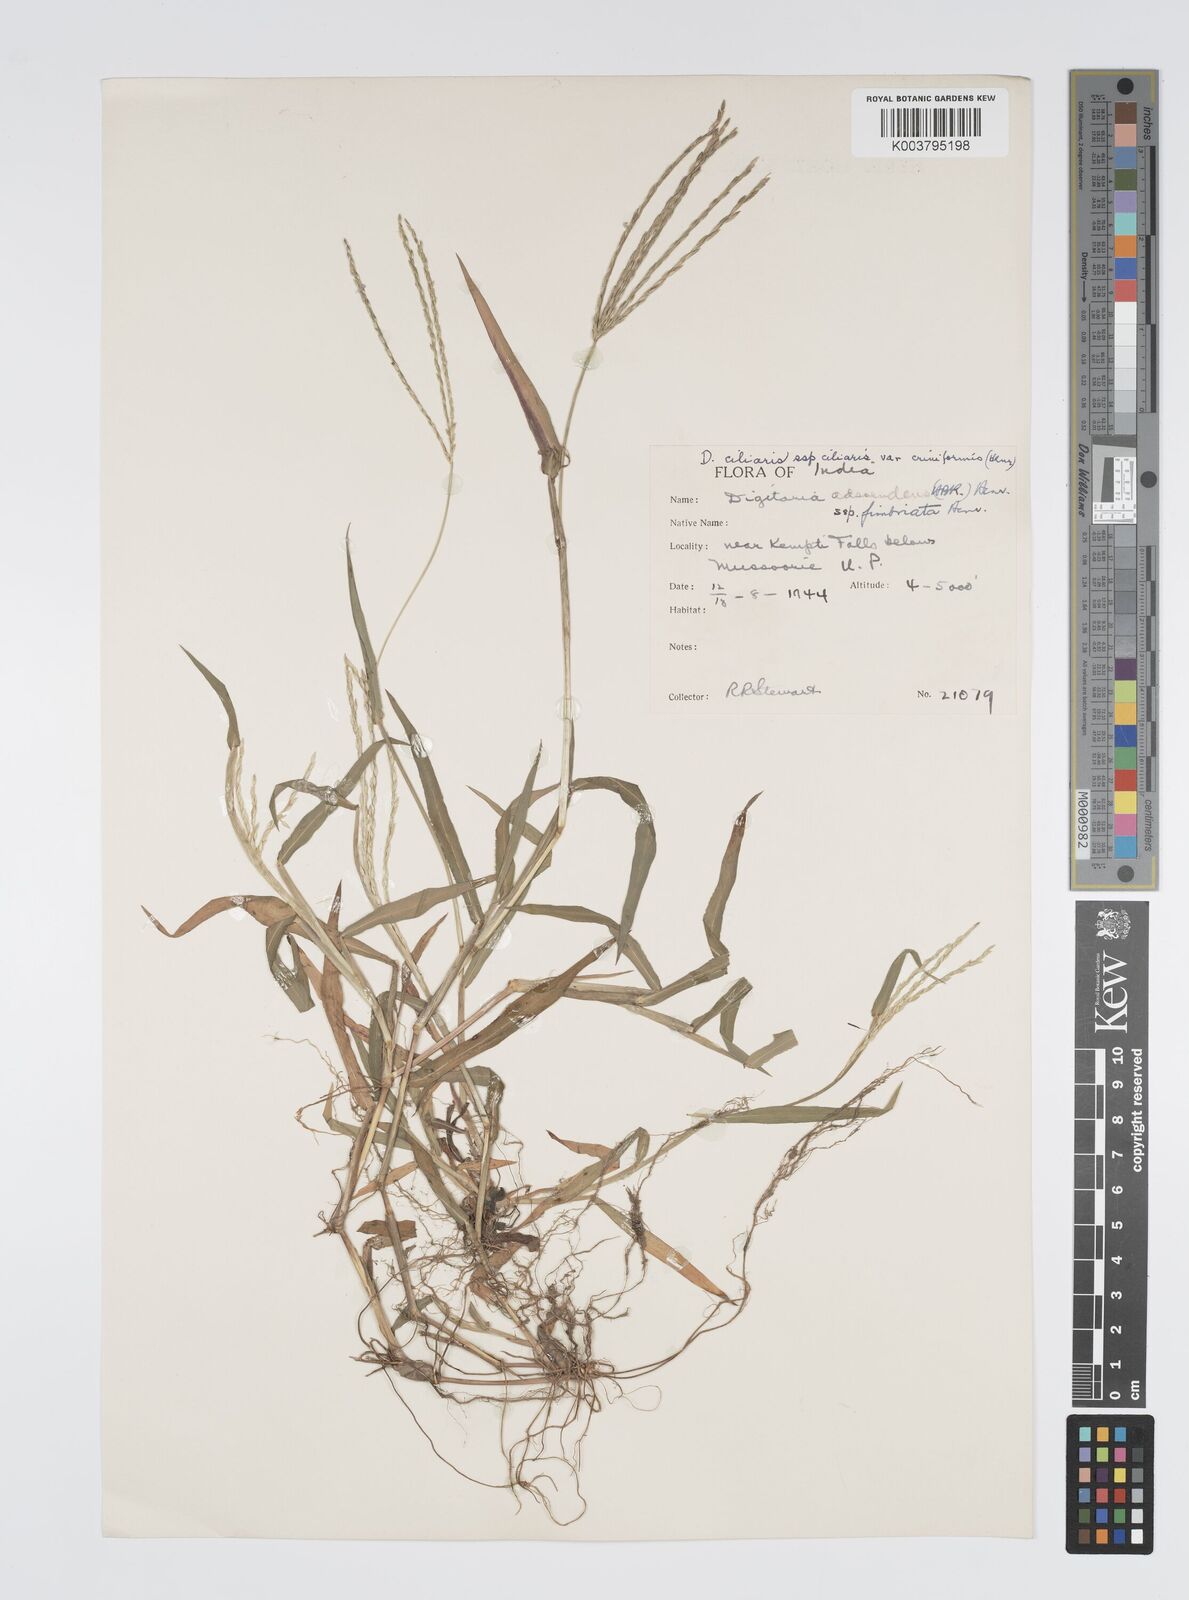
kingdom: Plantae
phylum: Tracheophyta
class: Liliopsida
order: Poales
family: Poaceae
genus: Digitaria
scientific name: Digitaria ciliaris
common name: Tropical finger-grass
